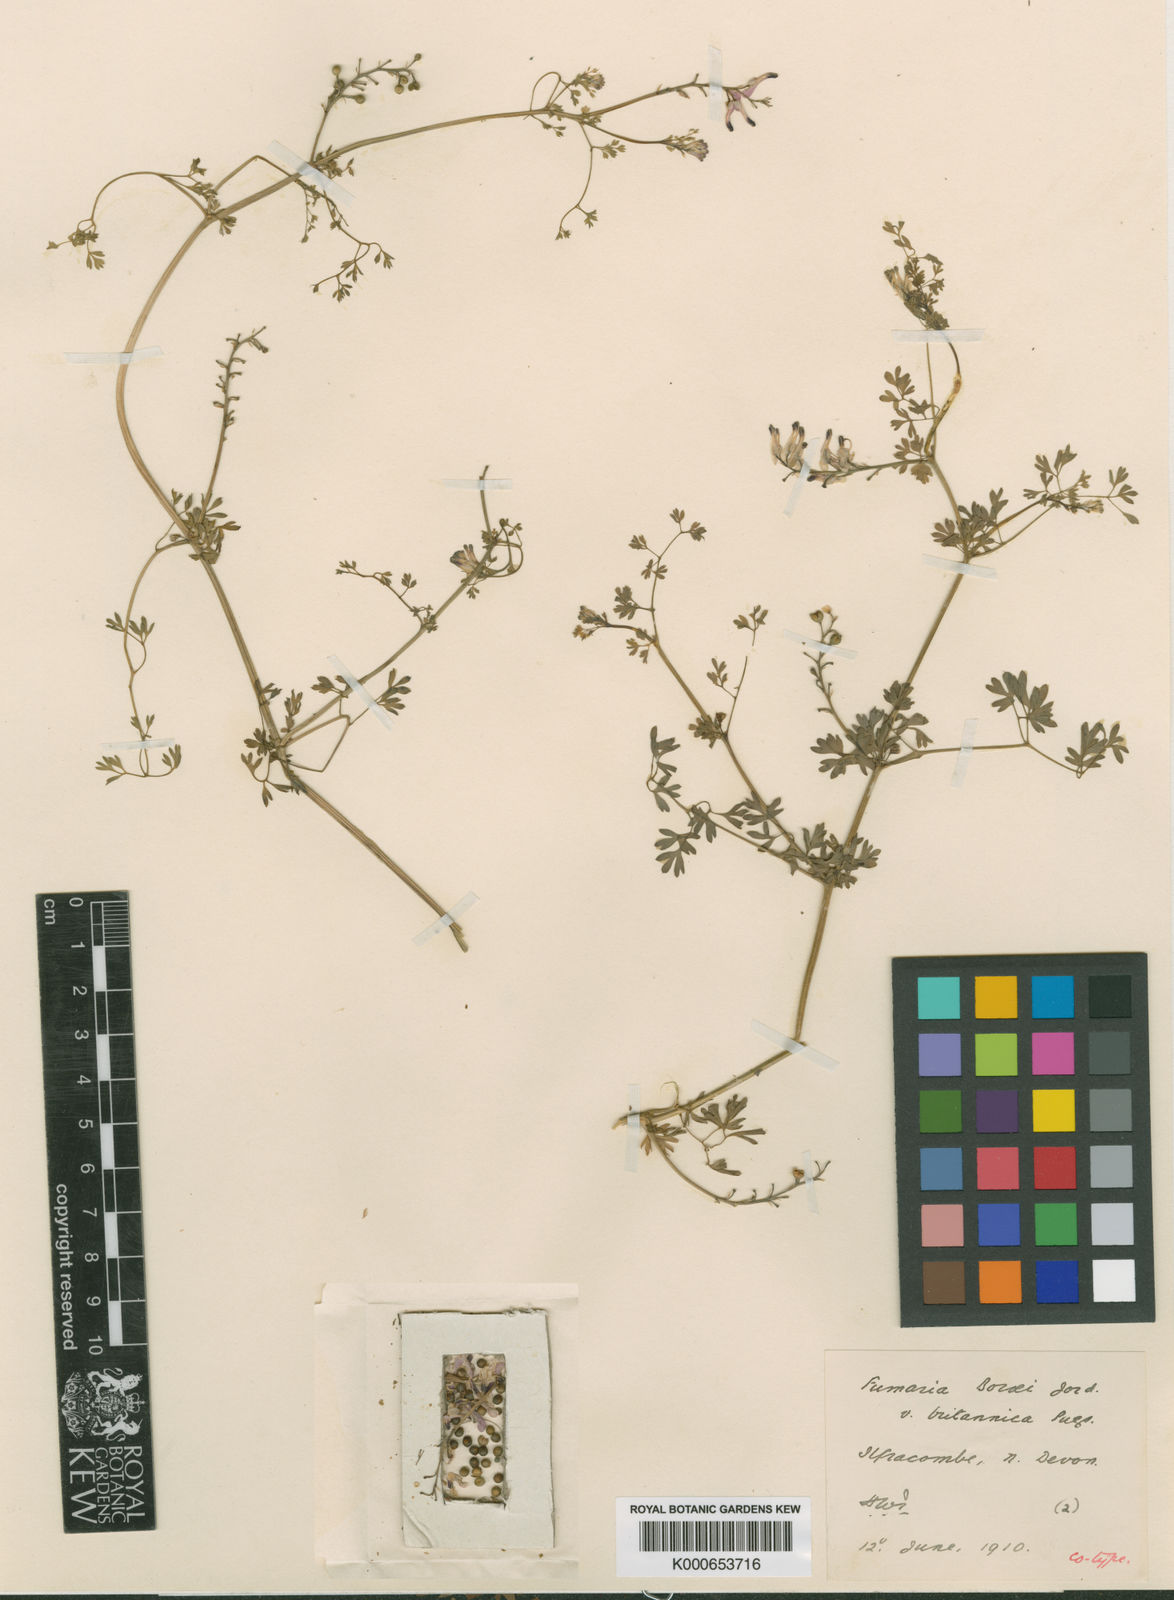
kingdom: Plantae
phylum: Tracheophyta
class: Magnoliopsida
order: Ranunculales
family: Papaveraceae
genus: Fumaria
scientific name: Fumaria muralis
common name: Common ramping-fumitory
